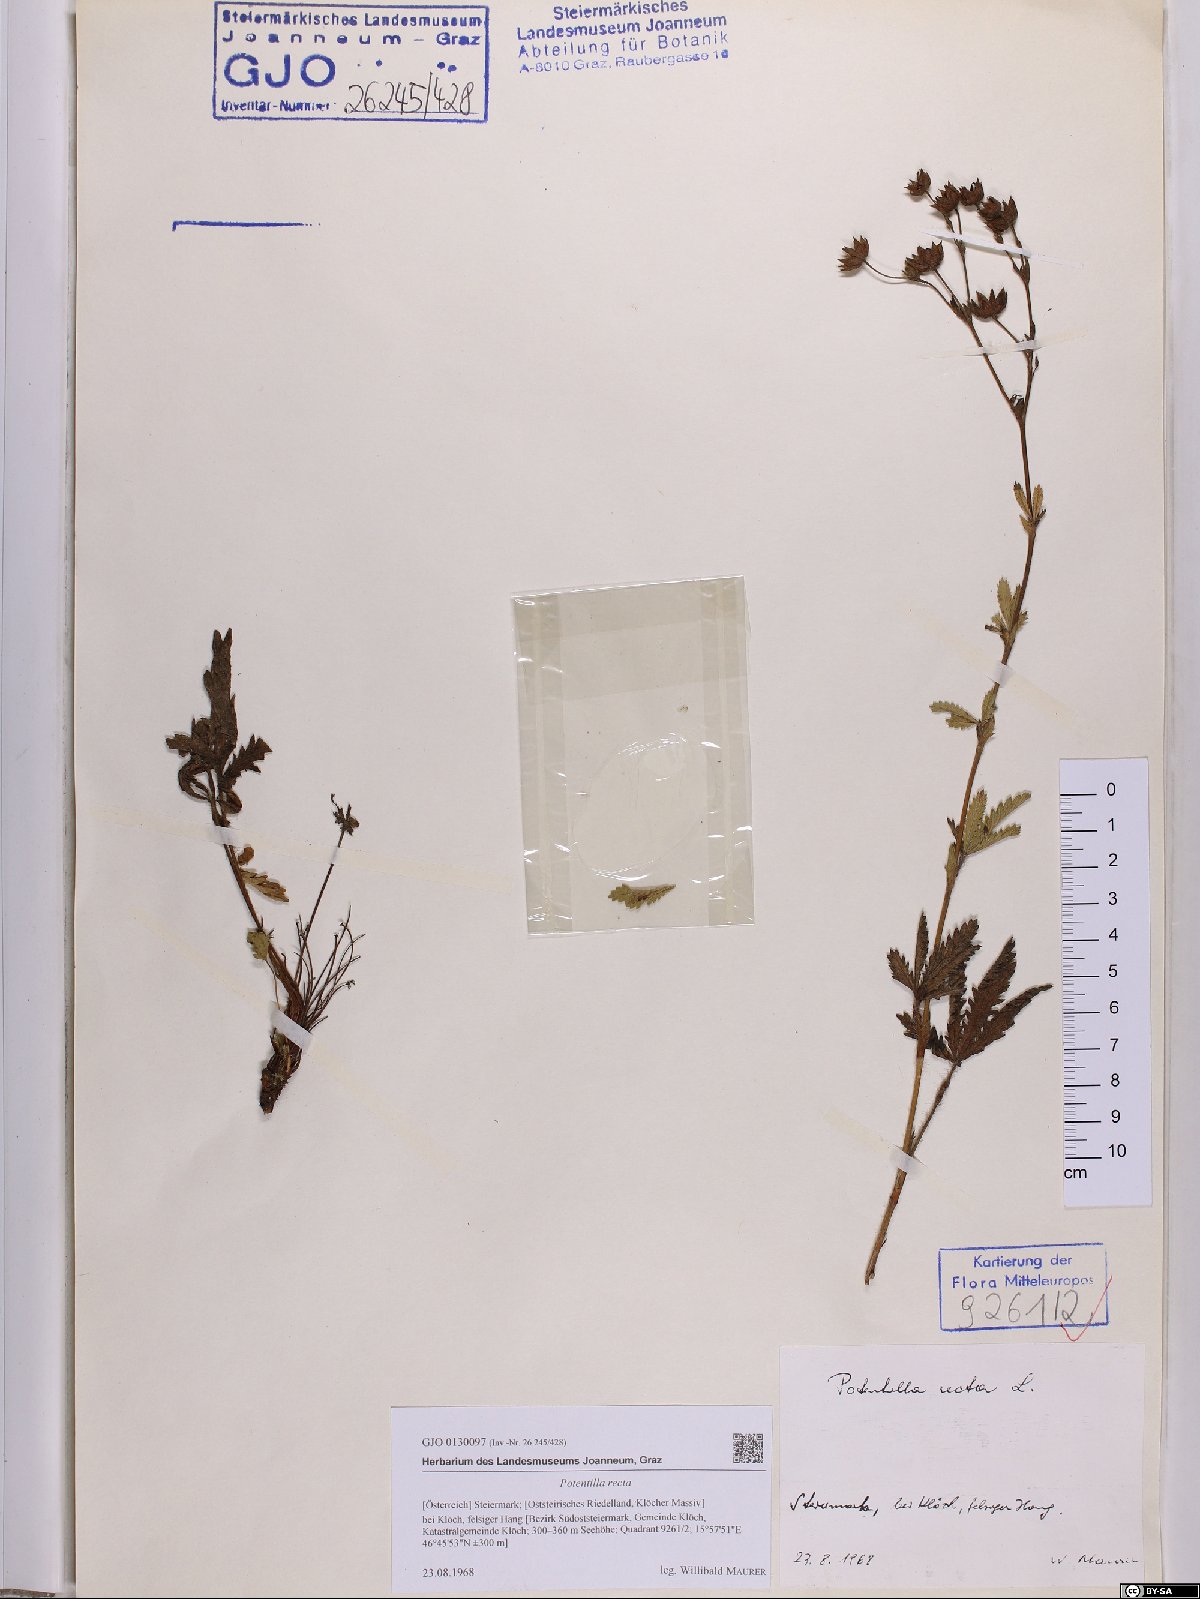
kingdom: Plantae
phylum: Tracheophyta
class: Magnoliopsida
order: Rosales
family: Rosaceae
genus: Potentilla
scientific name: Potentilla recta
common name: Sulphur cinquefoil
